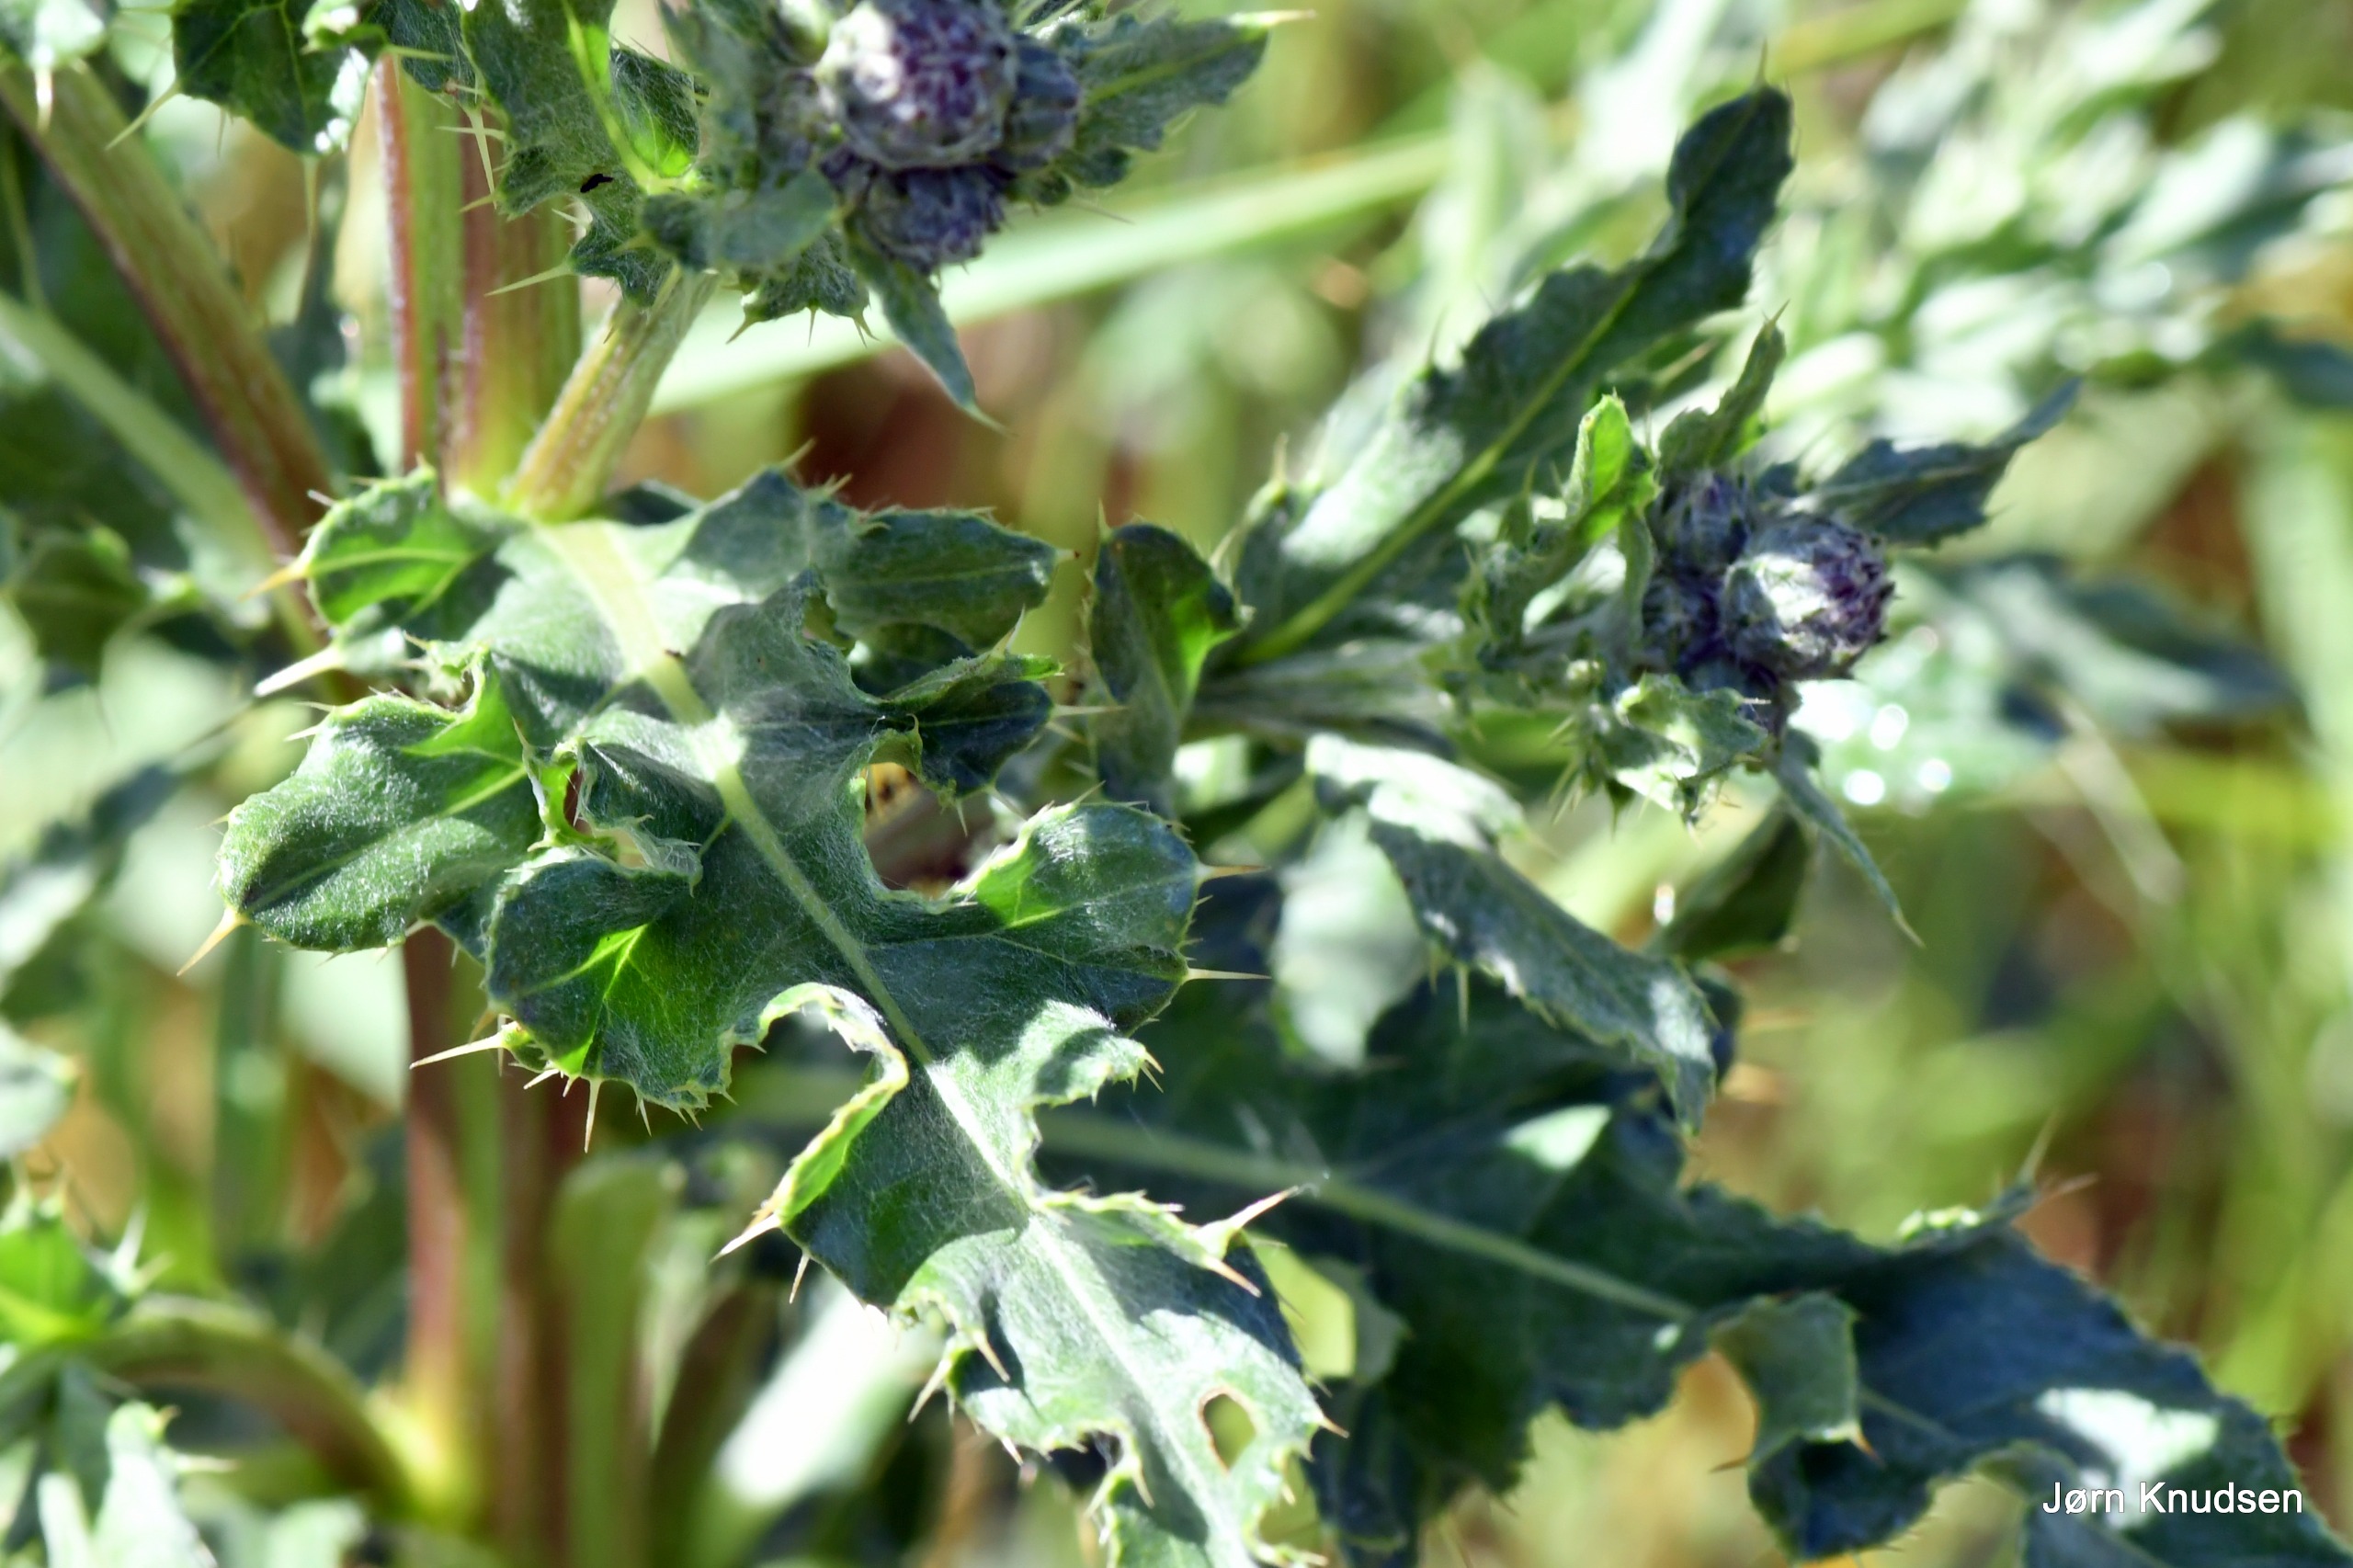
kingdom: Plantae
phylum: Tracheophyta
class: Magnoliopsida
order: Asterales
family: Asteraceae
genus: Cirsium
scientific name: Cirsium arvense
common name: Ager-tidsel
